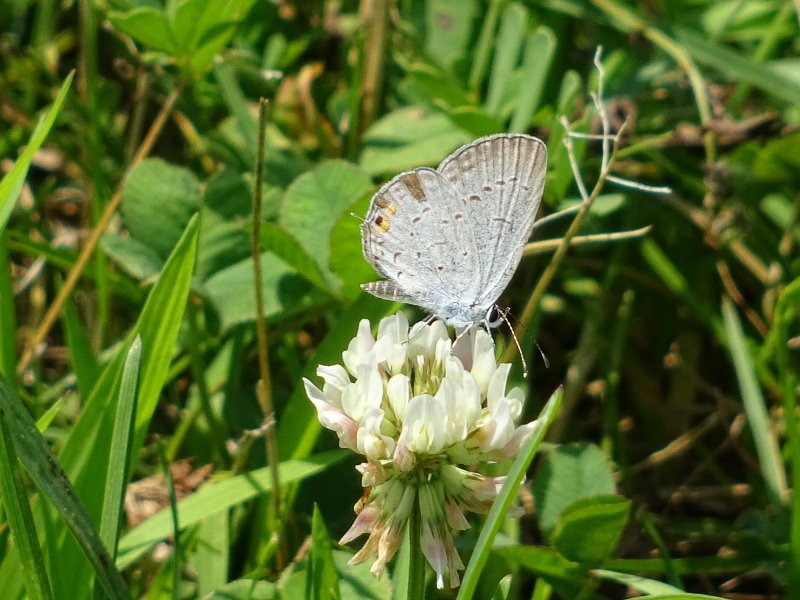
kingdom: Animalia
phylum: Arthropoda
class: Insecta
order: Lepidoptera
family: Lycaenidae
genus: Elkalyce
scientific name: Elkalyce comyntas
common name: Eastern Tailed-Blue
